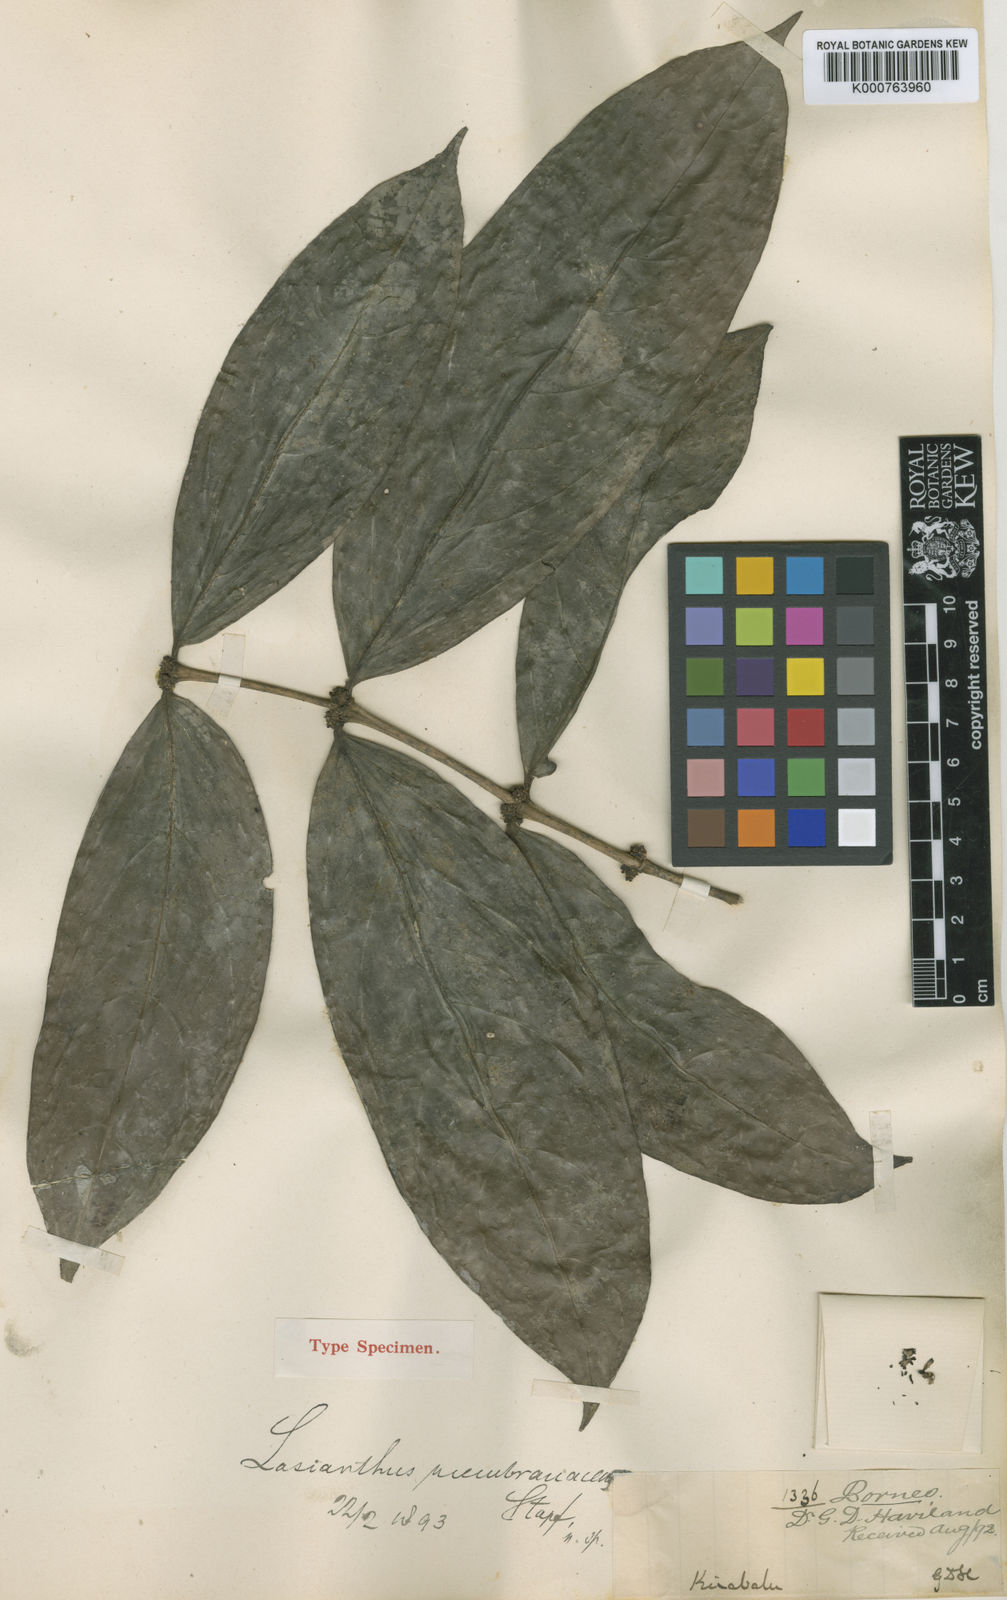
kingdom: Plantae
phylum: Tracheophyta
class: Magnoliopsida
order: Gentianales
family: Rubiaceae
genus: Lasianthus
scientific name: Lasianthus membranaceus
